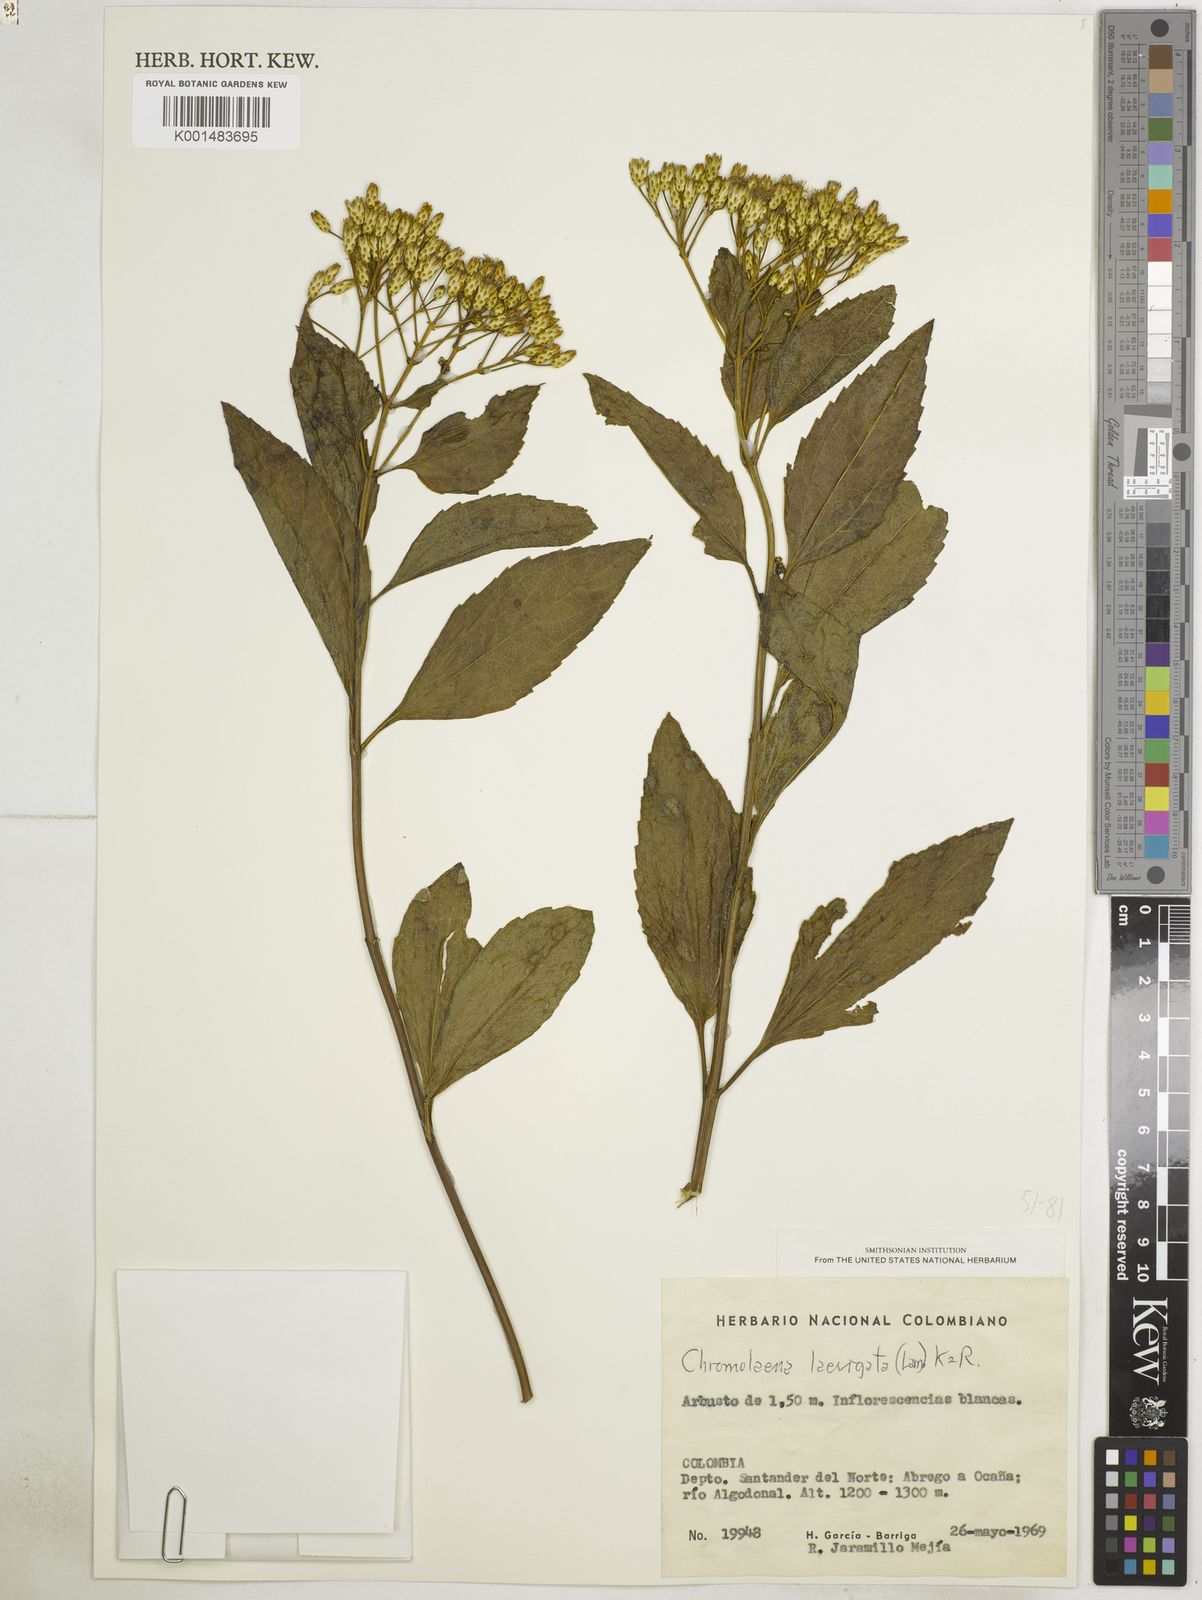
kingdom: Plantae
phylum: Tracheophyta
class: Magnoliopsida
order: Asterales
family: Asteraceae
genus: Chromolaena
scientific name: Chromolaena laevigata
